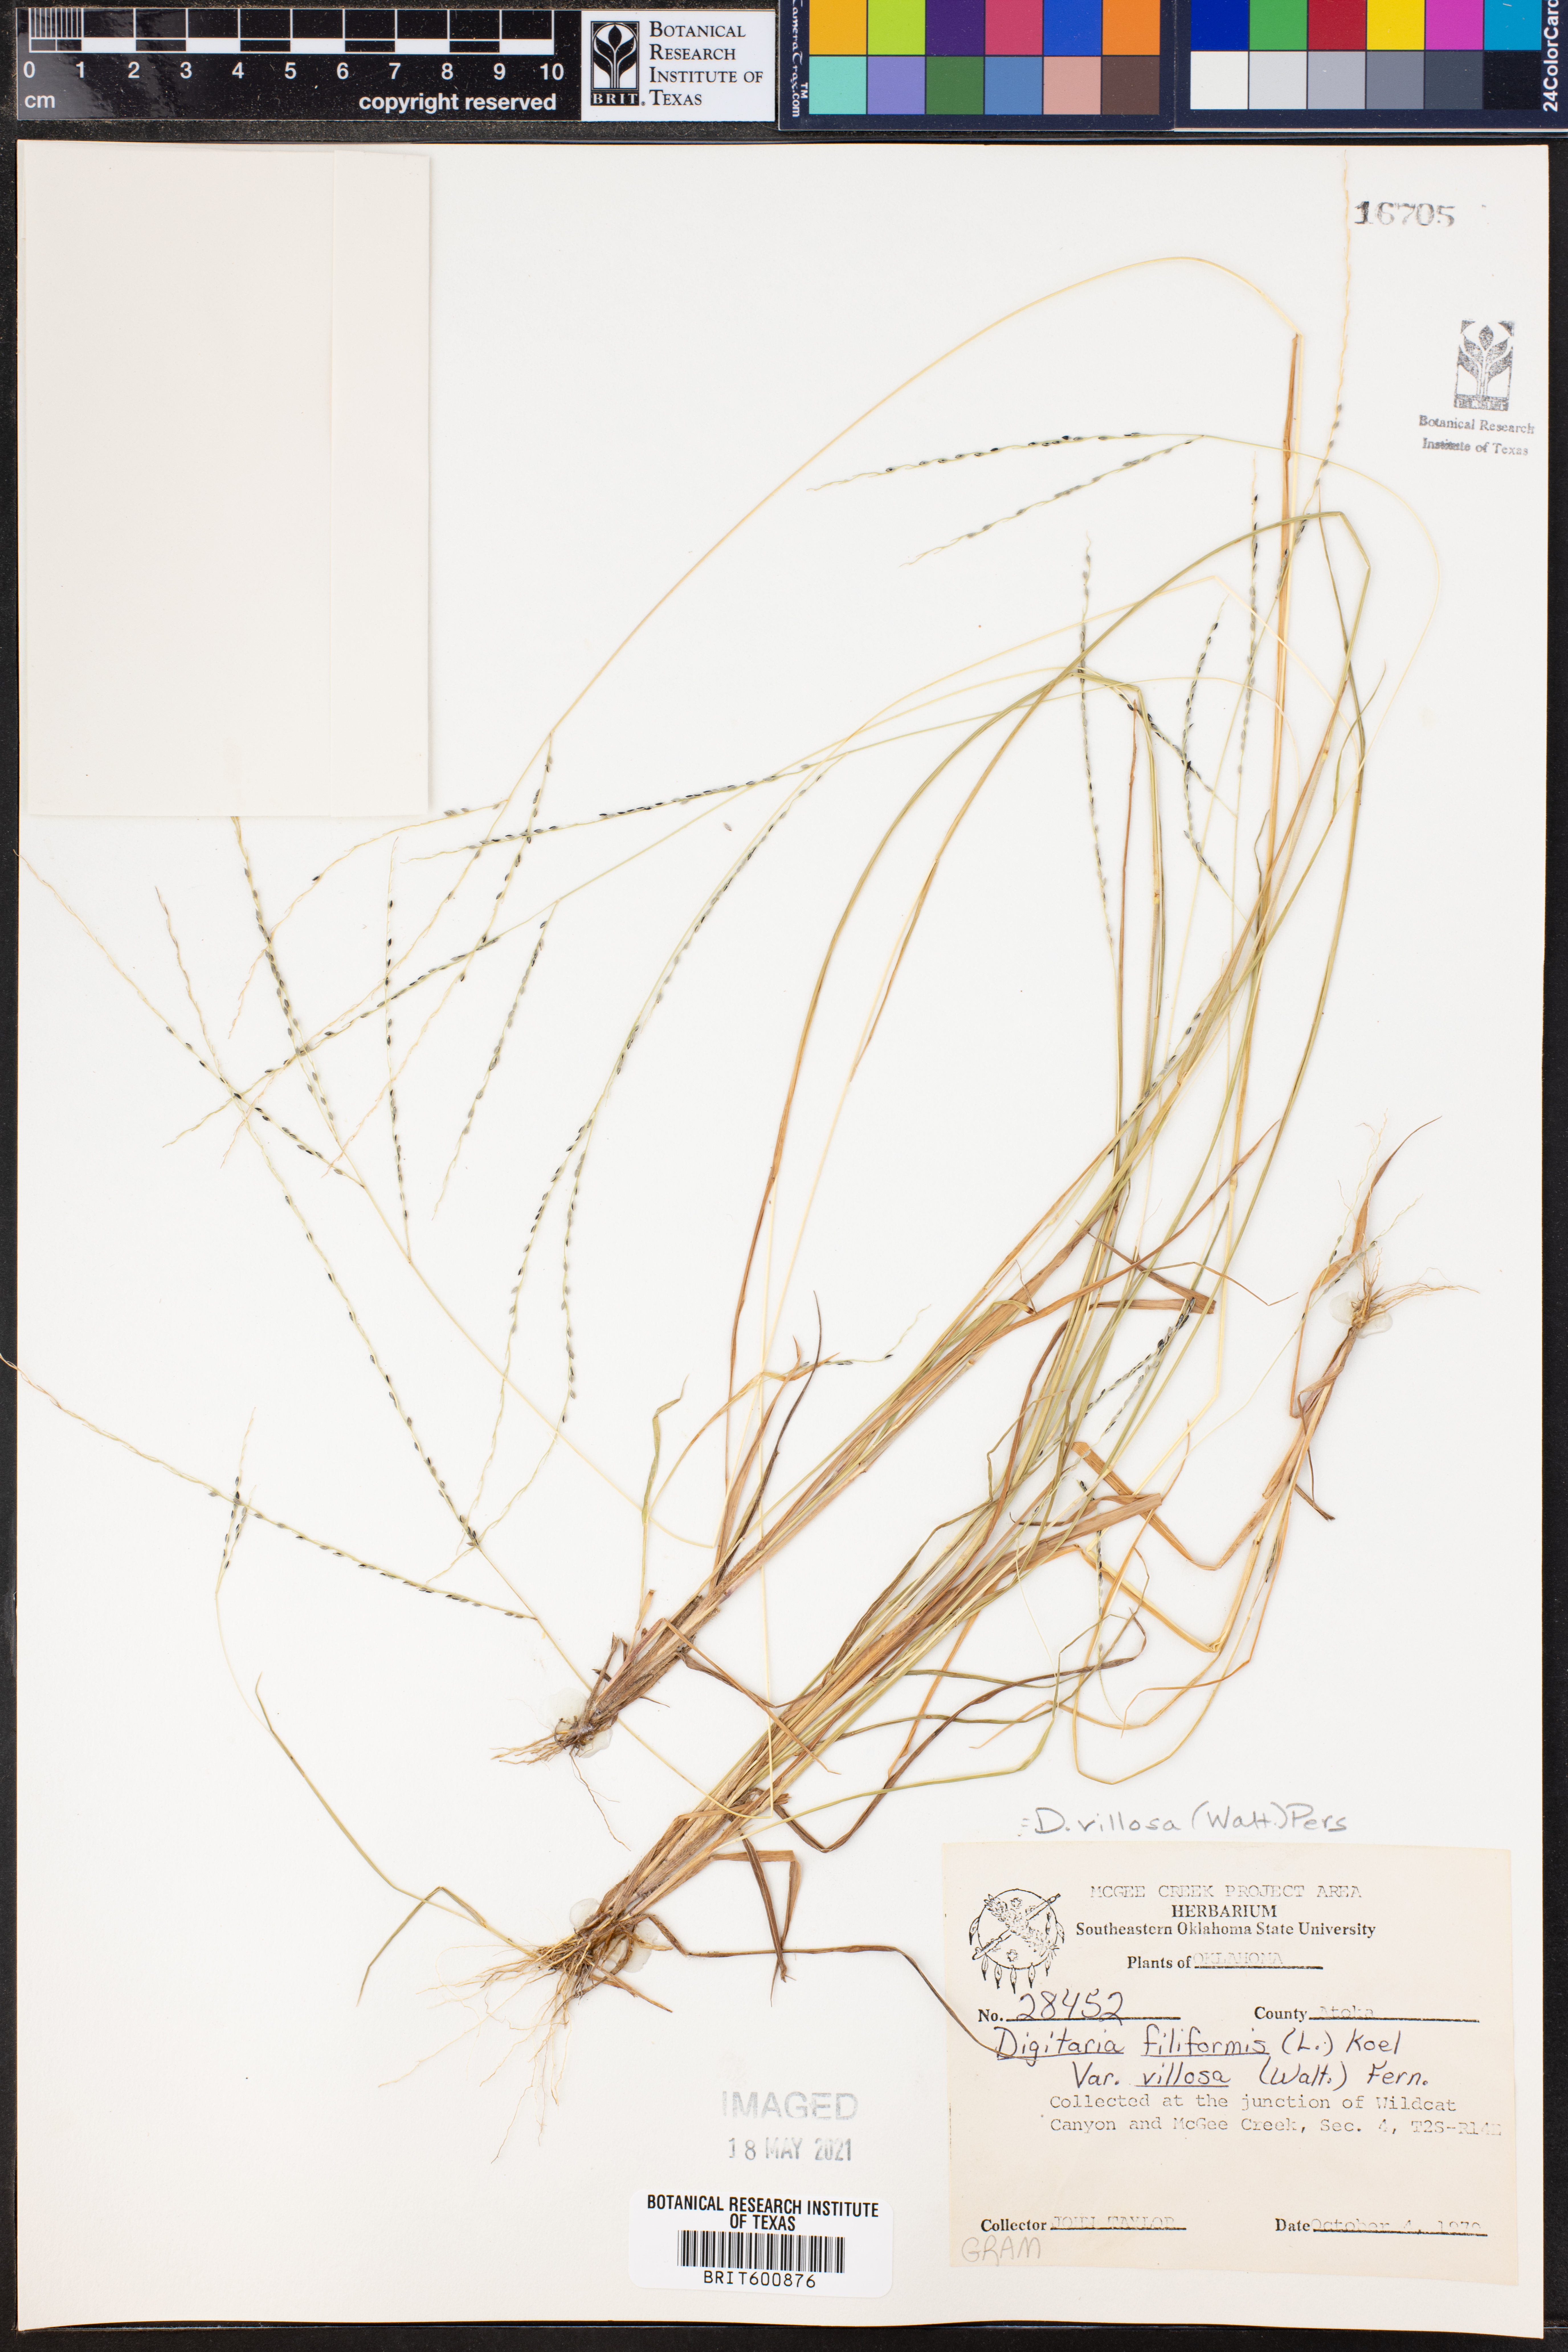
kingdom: Plantae
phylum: Tracheophyta
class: Liliopsida
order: Poales
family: Poaceae
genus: Digitaria
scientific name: Digitaria villosa
